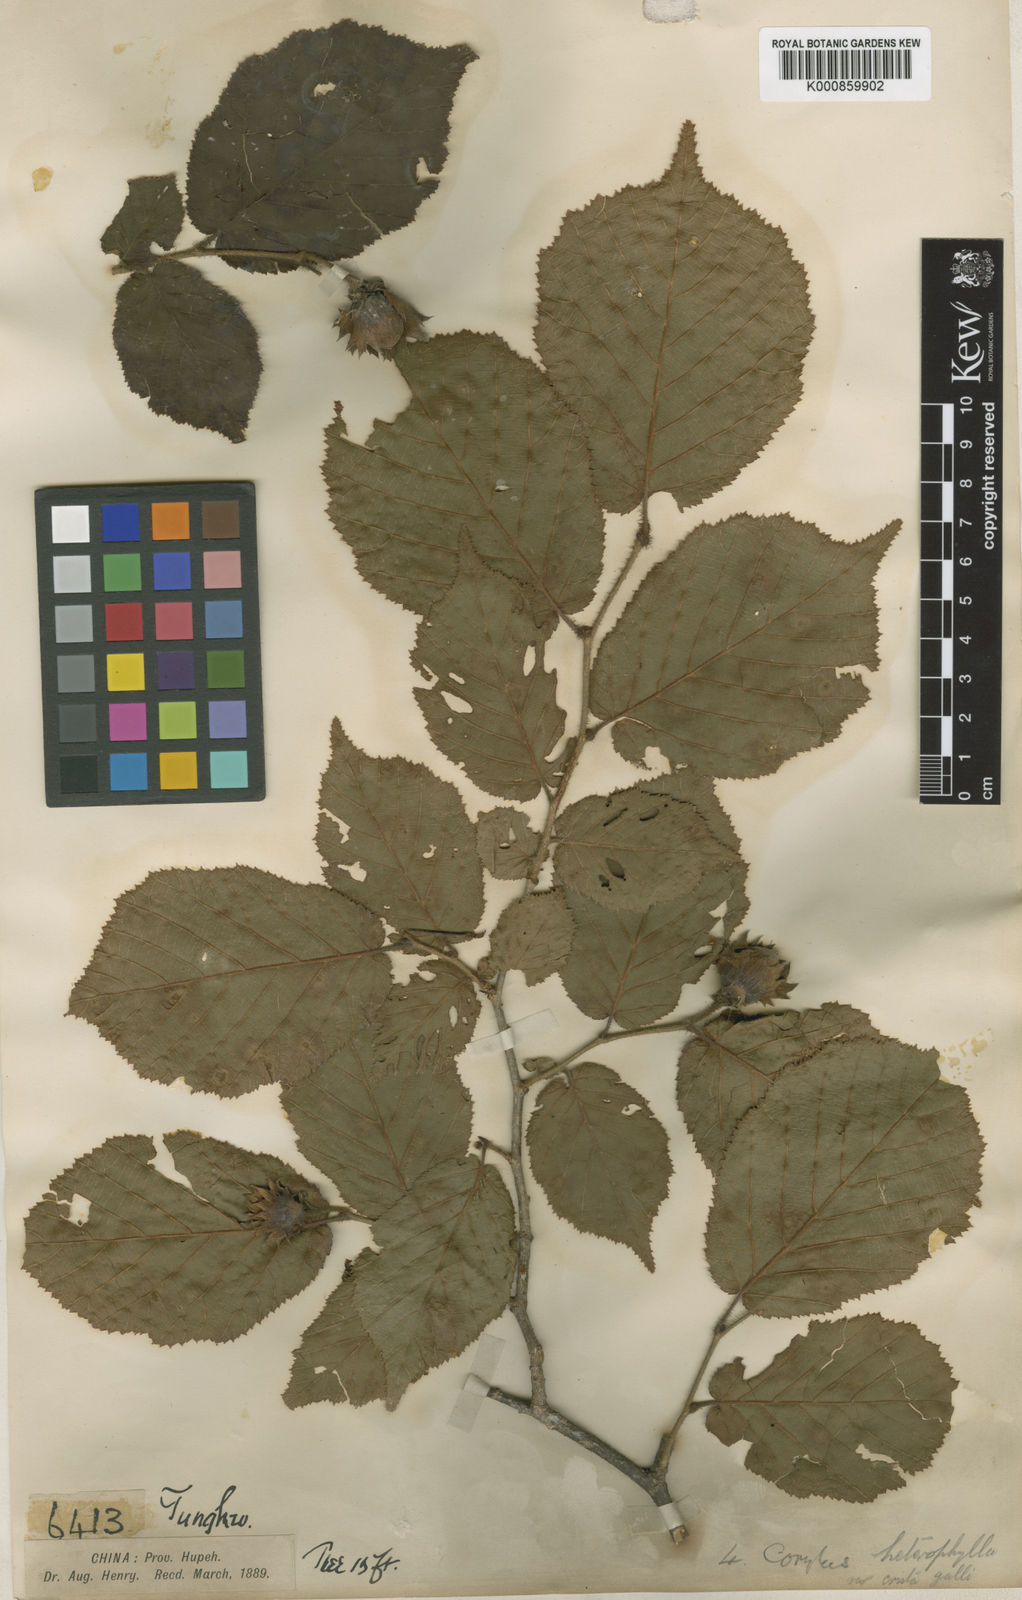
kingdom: Plantae
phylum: Tracheophyta
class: Magnoliopsida
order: Fagales
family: Betulaceae
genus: Corylus
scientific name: Corylus heterophylla
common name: Siberian hazelnut
